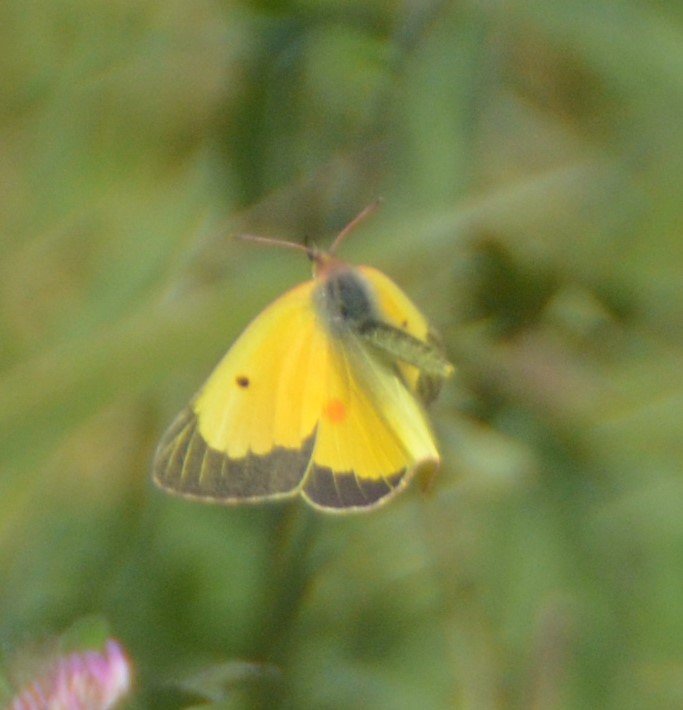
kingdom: Animalia
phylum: Arthropoda
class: Insecta
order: Lepidoptera
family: Pieridae
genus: Colias
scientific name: Colias eurytheme
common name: Orange Sulphur
